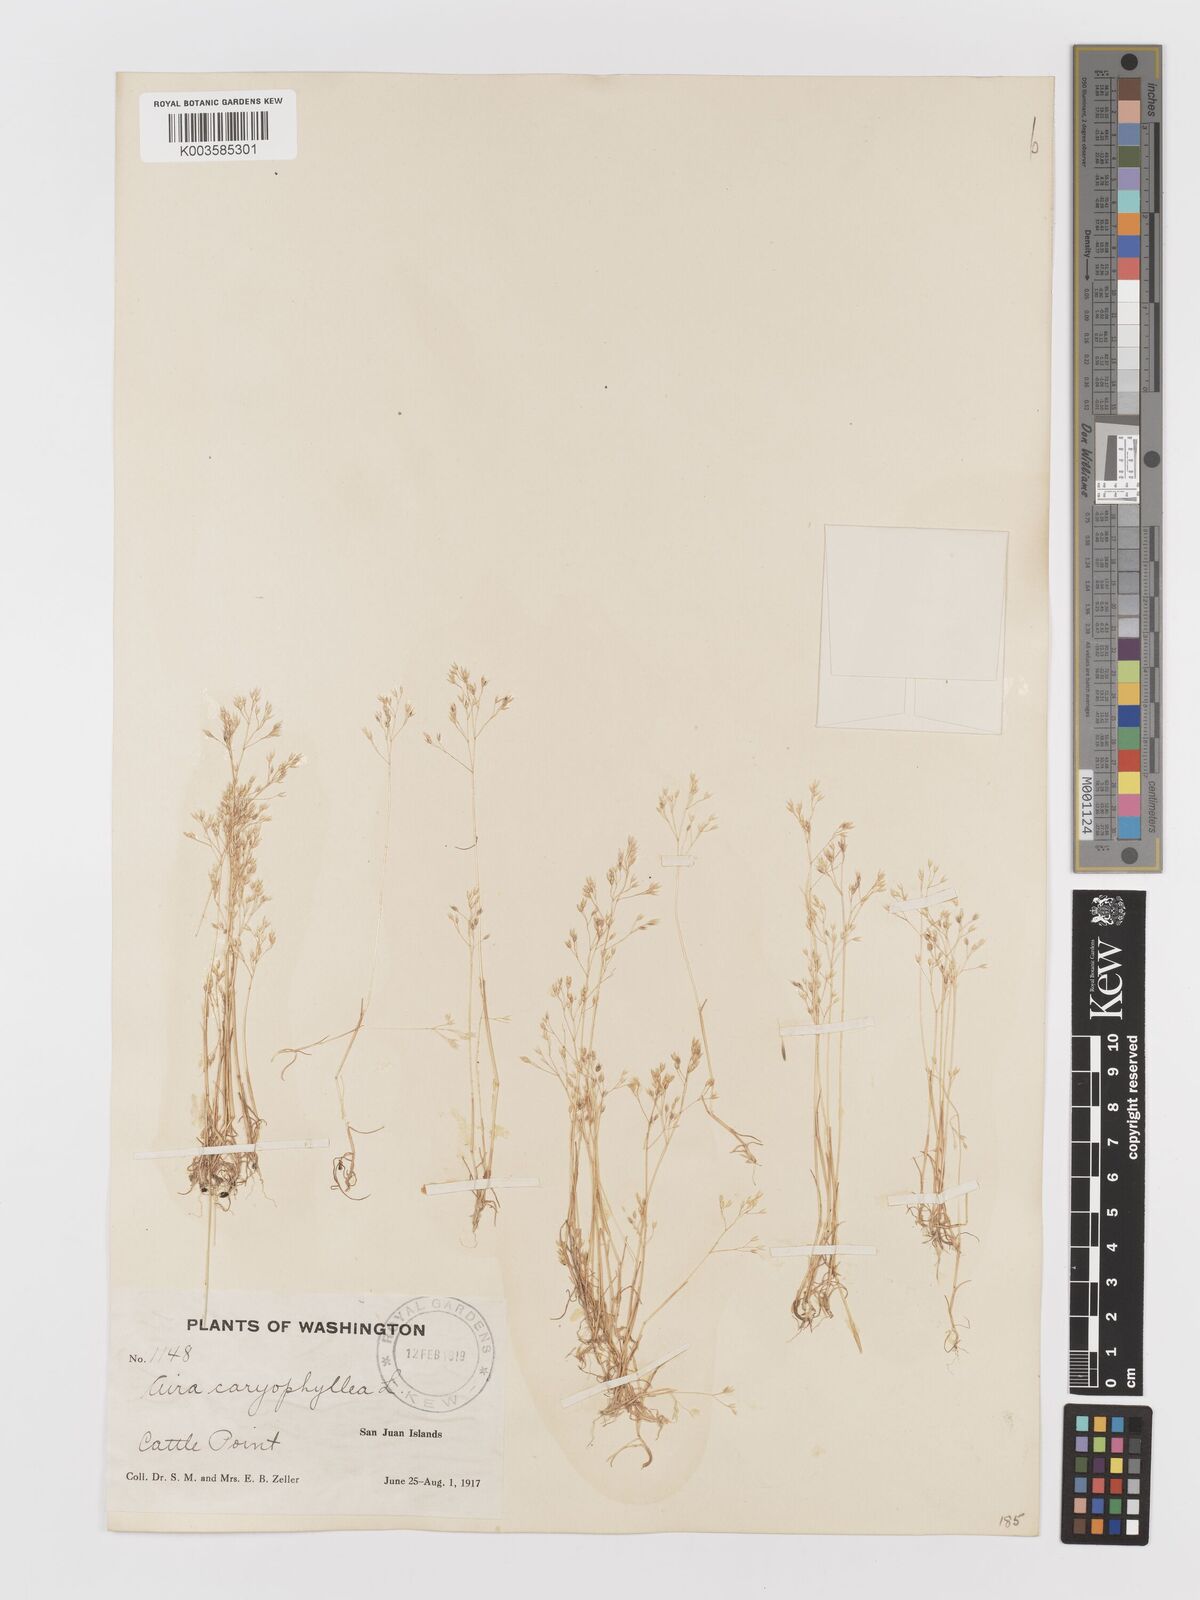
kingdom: Plantae
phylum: Tracheophyta
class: Liliopsida
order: Poales
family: Poaceae
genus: Aira
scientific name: Aira caryophyllea
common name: Silver hairgrass
